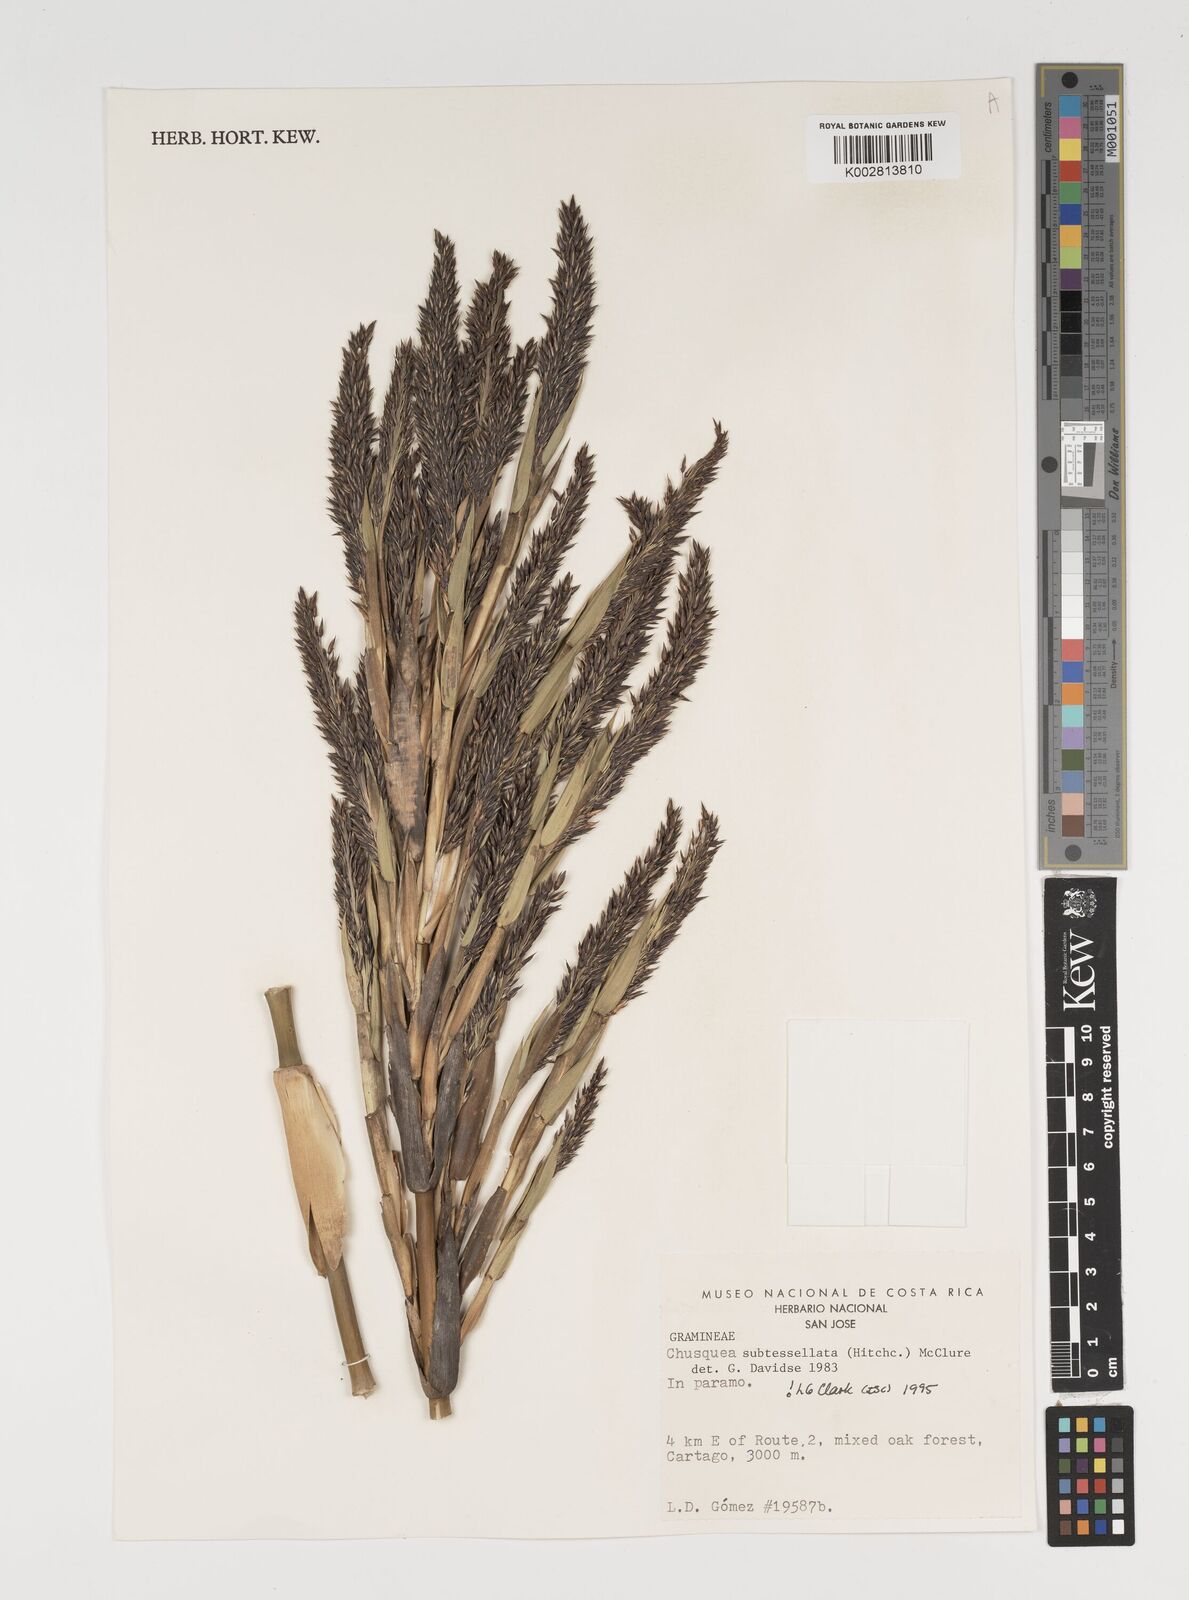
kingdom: Plantae
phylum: Tracheophyta
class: Liliopsida
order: Poales
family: Poaceae
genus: Chusquea
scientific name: Chusquea subtessellata
